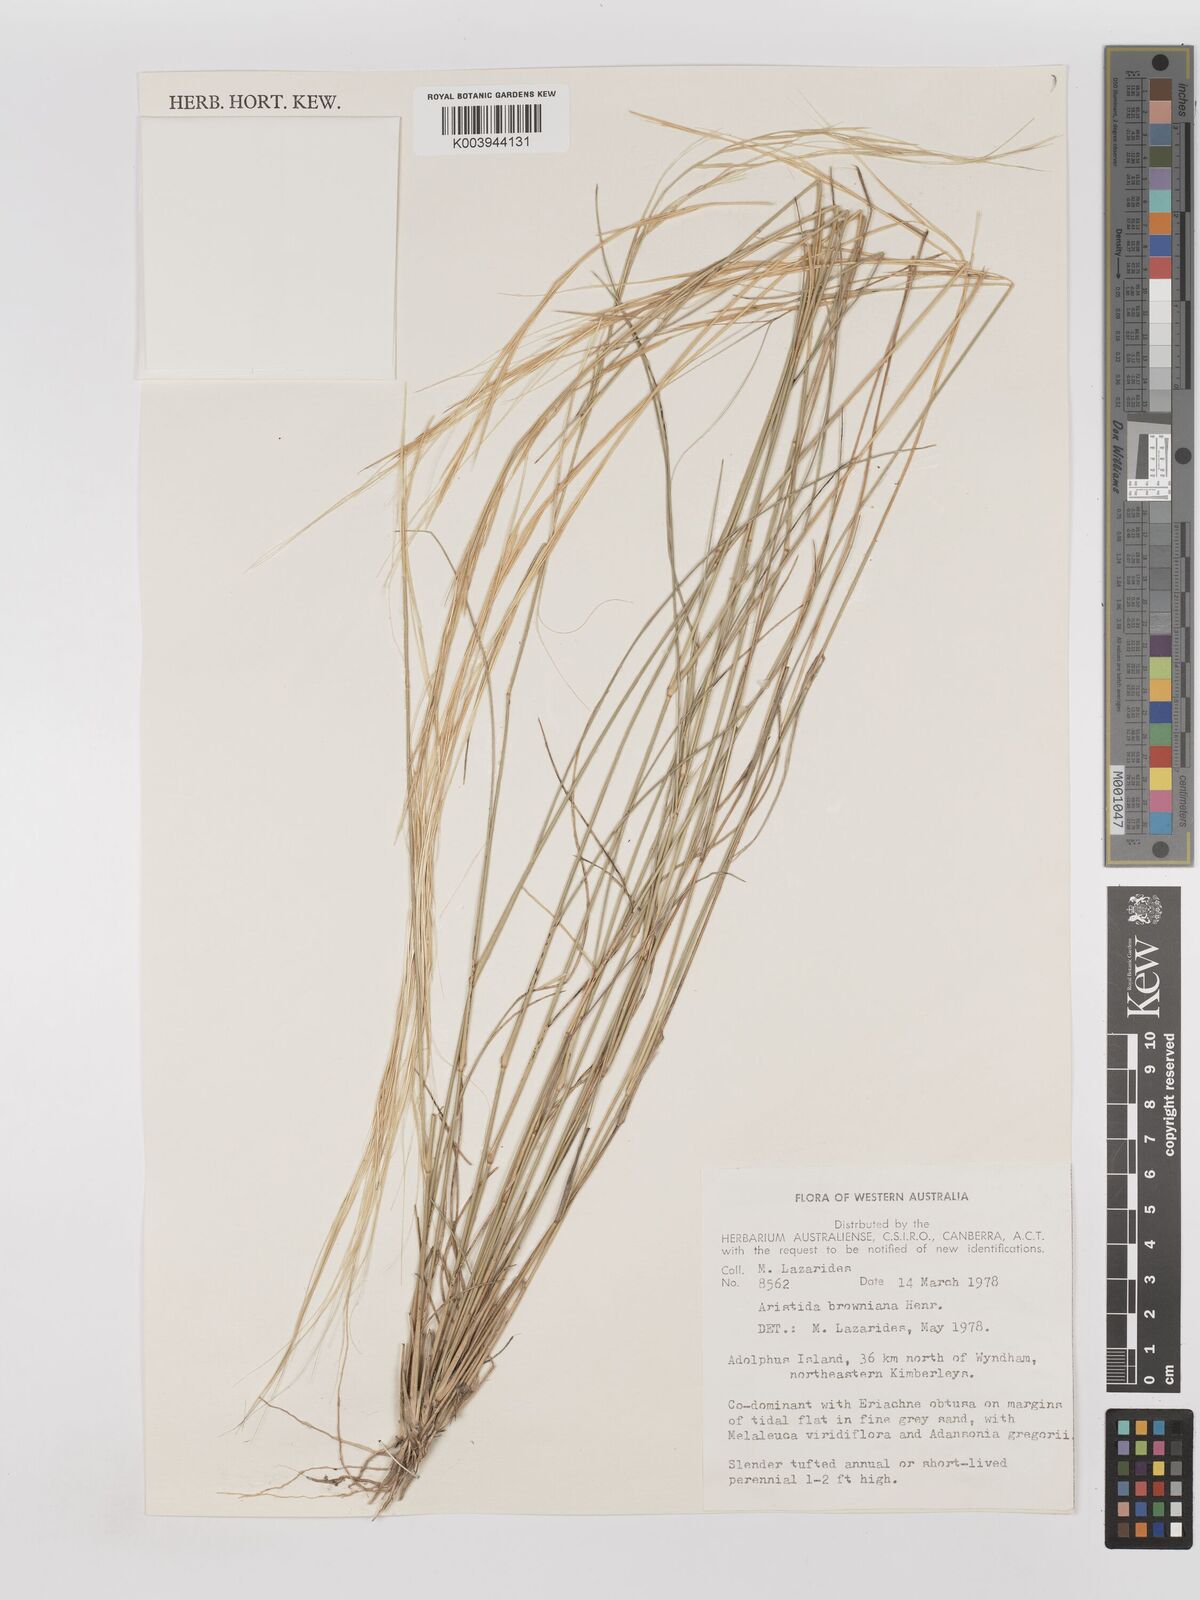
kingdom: Plantae
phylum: Tracheophyta
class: Liliopsida
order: Poales
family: Poaceae
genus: Aristida
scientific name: Aristida holathera
